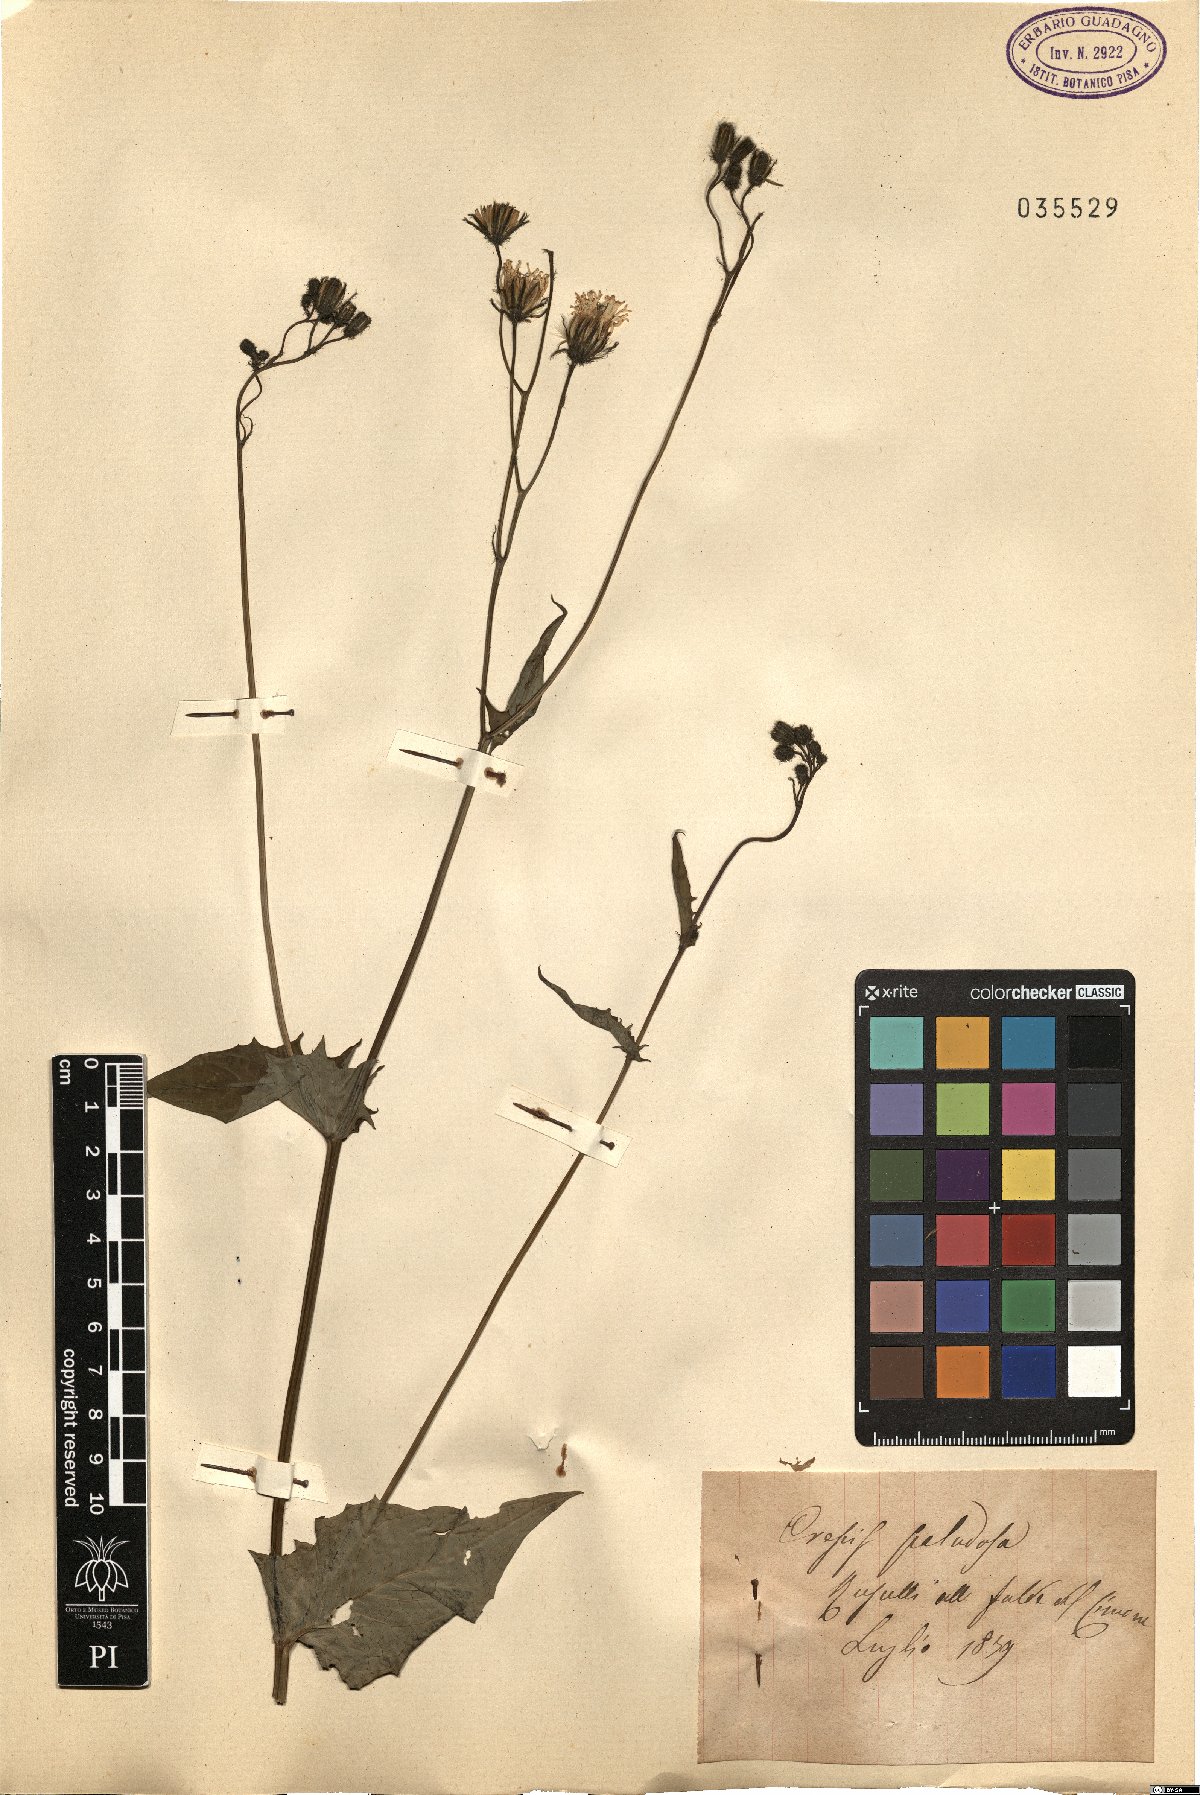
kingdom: Plantae
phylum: Tracheophyta
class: Magnoliopsida
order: Asterales
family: Asteraceae
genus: Crepis
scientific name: Crepis paludosa
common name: Marsh hawk's-beard
